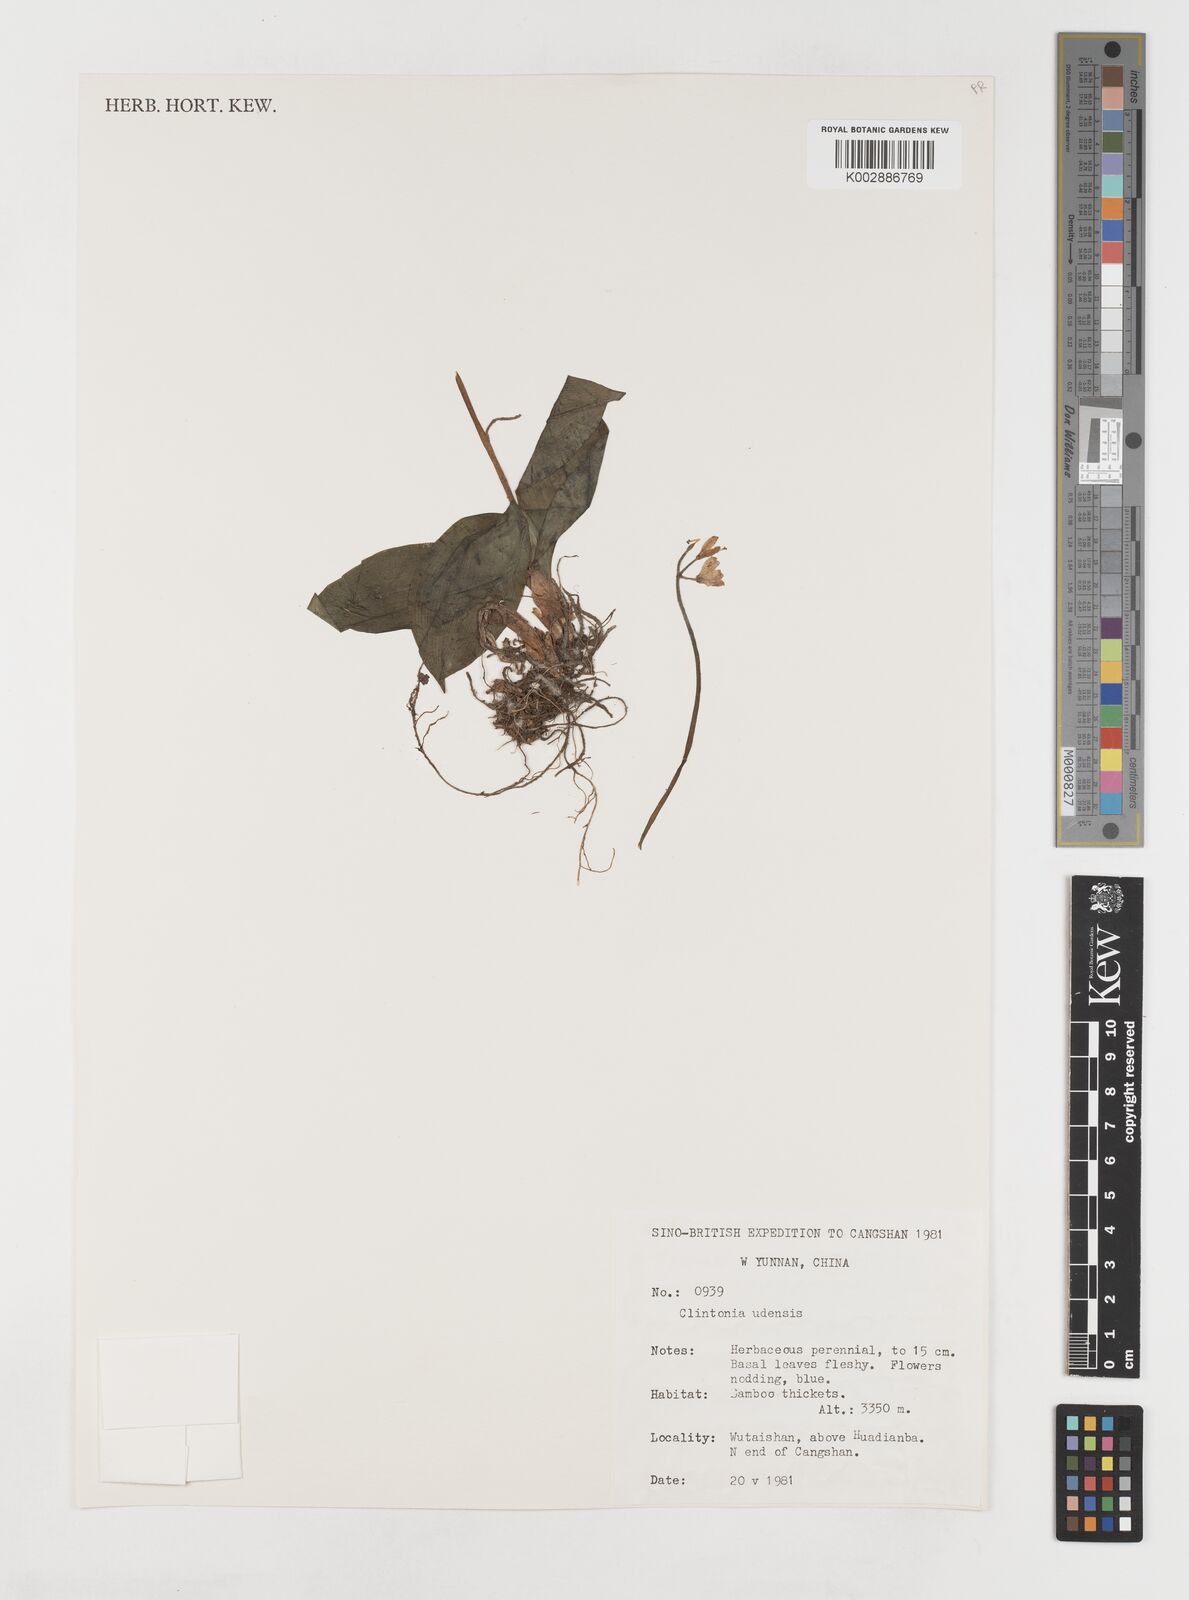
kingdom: Plantae
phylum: Tracheophyta
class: Liliopsida
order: Liliales
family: Liliaceae
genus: Clintonia
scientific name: Clintonia udensis
